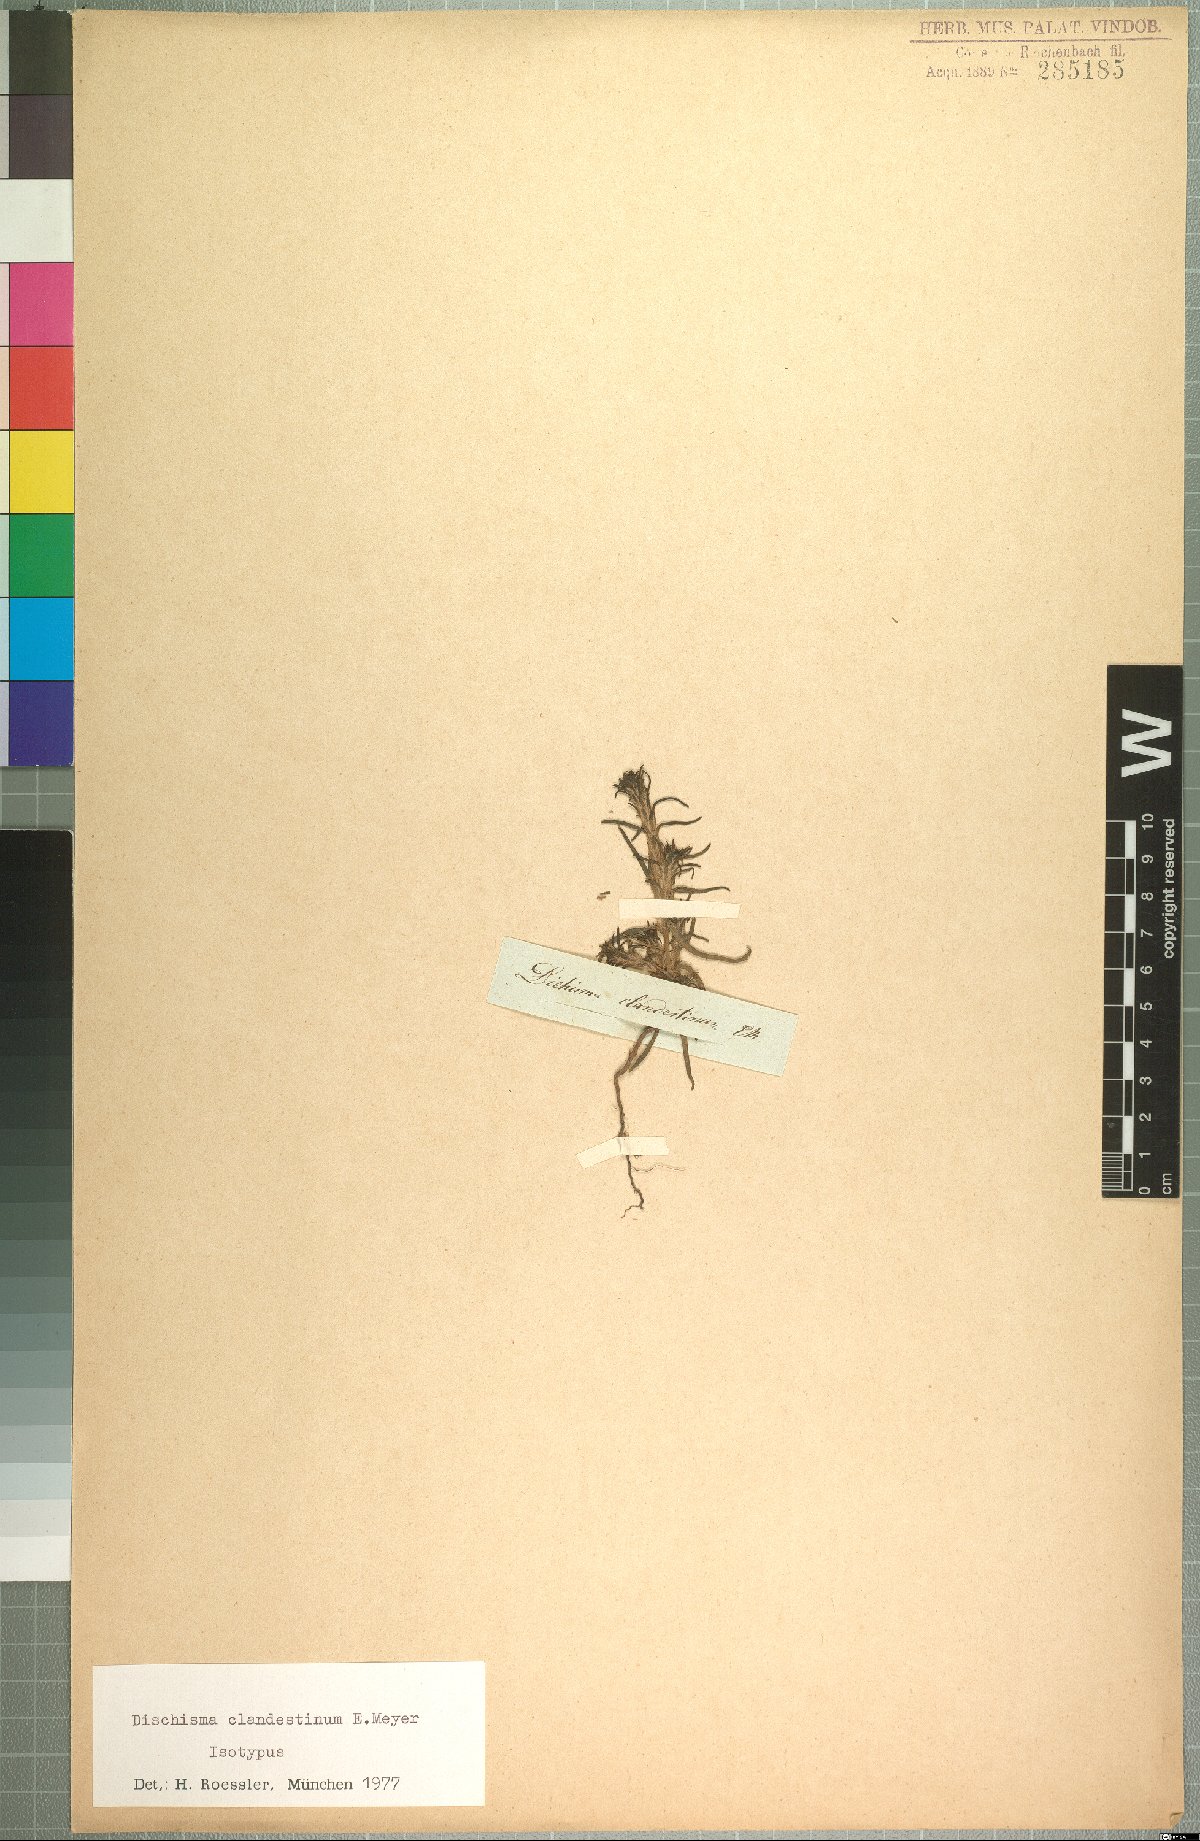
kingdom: Plantae
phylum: Tracheophyta
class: Magnoliopsida
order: Lamiales
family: Scrophulariaceae
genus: Dischisma
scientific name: Dischisma clandestinum
